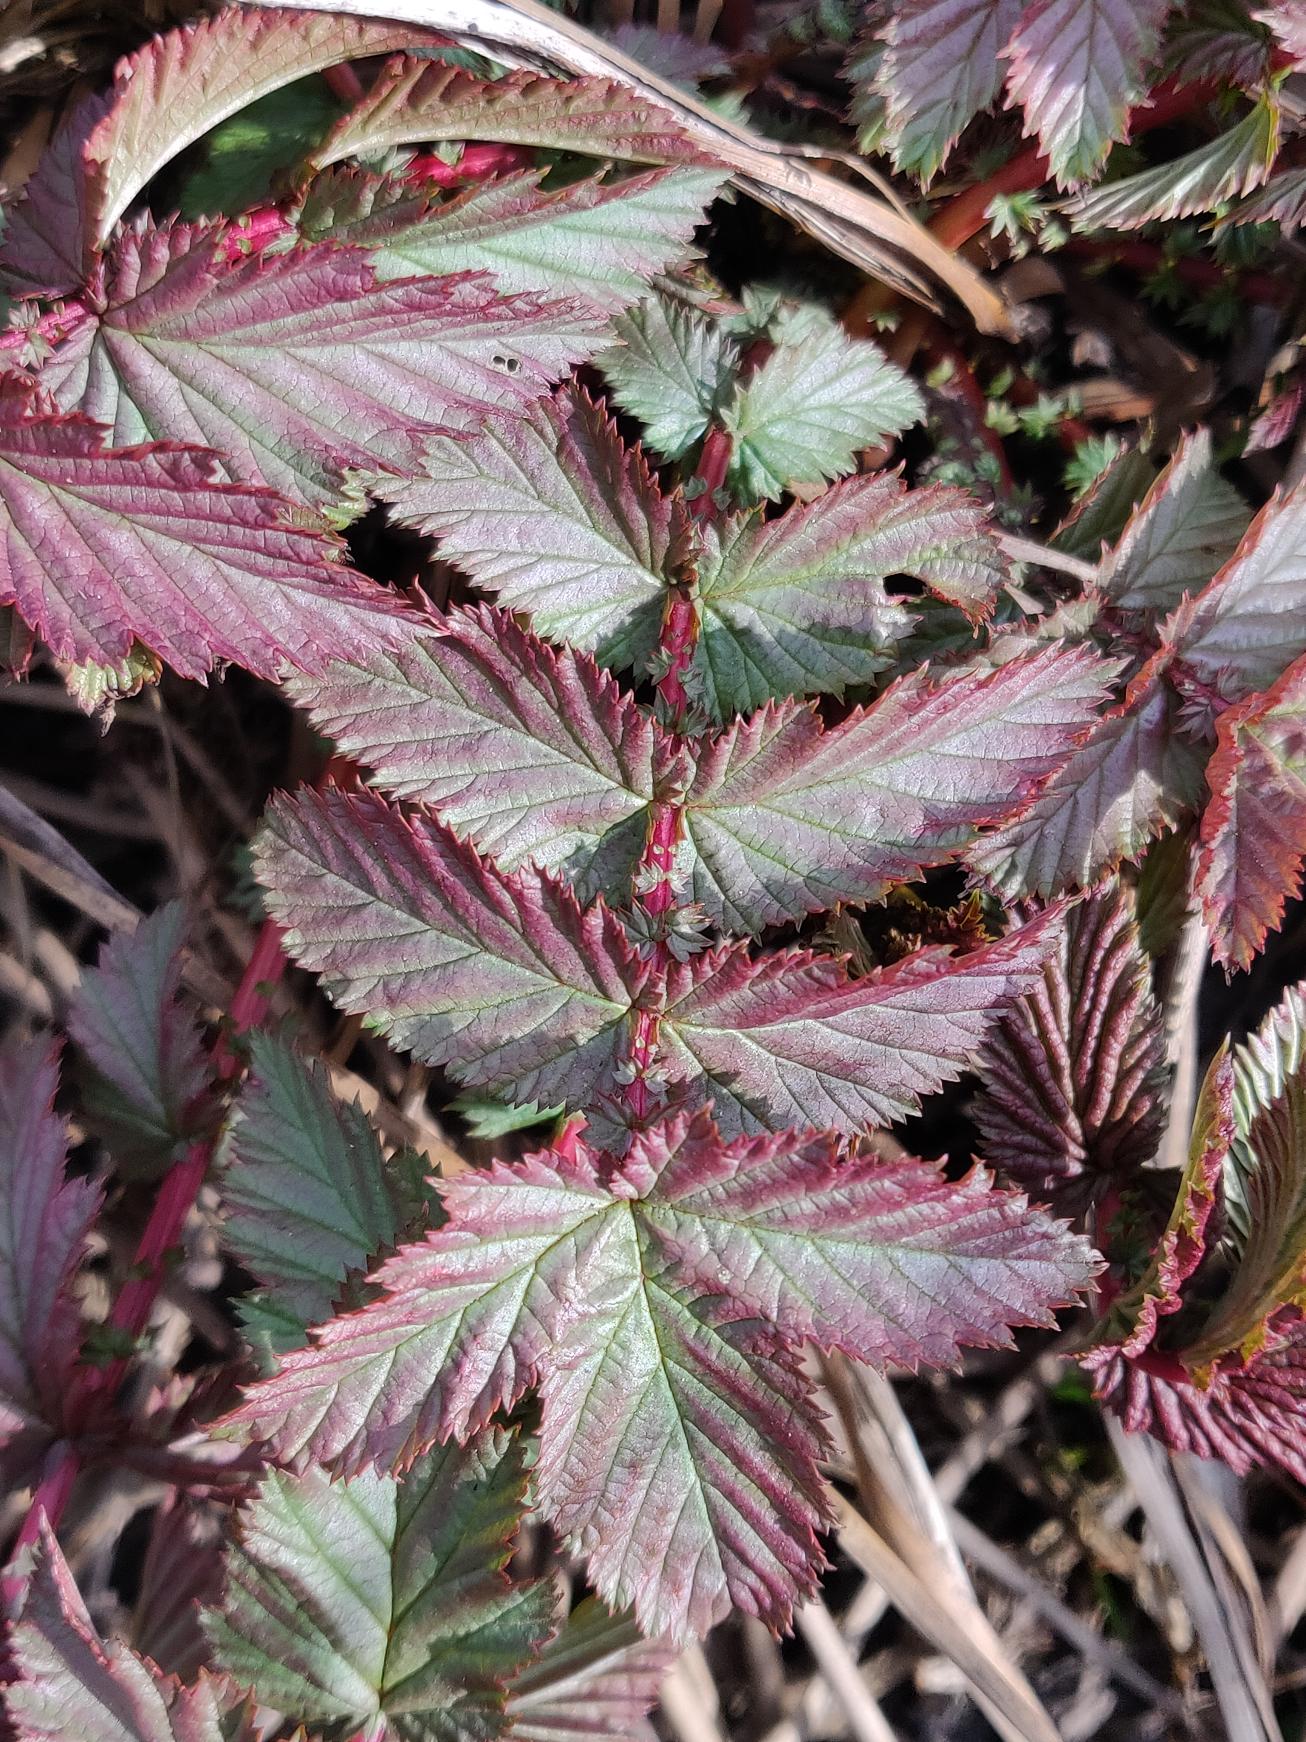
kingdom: Plantae
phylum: Tracheophyta
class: Magnoliopsida
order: Rosales
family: Rosaceae
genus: Filipendula
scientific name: Filipendula ulmaria
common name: Almindelig mjødurt
